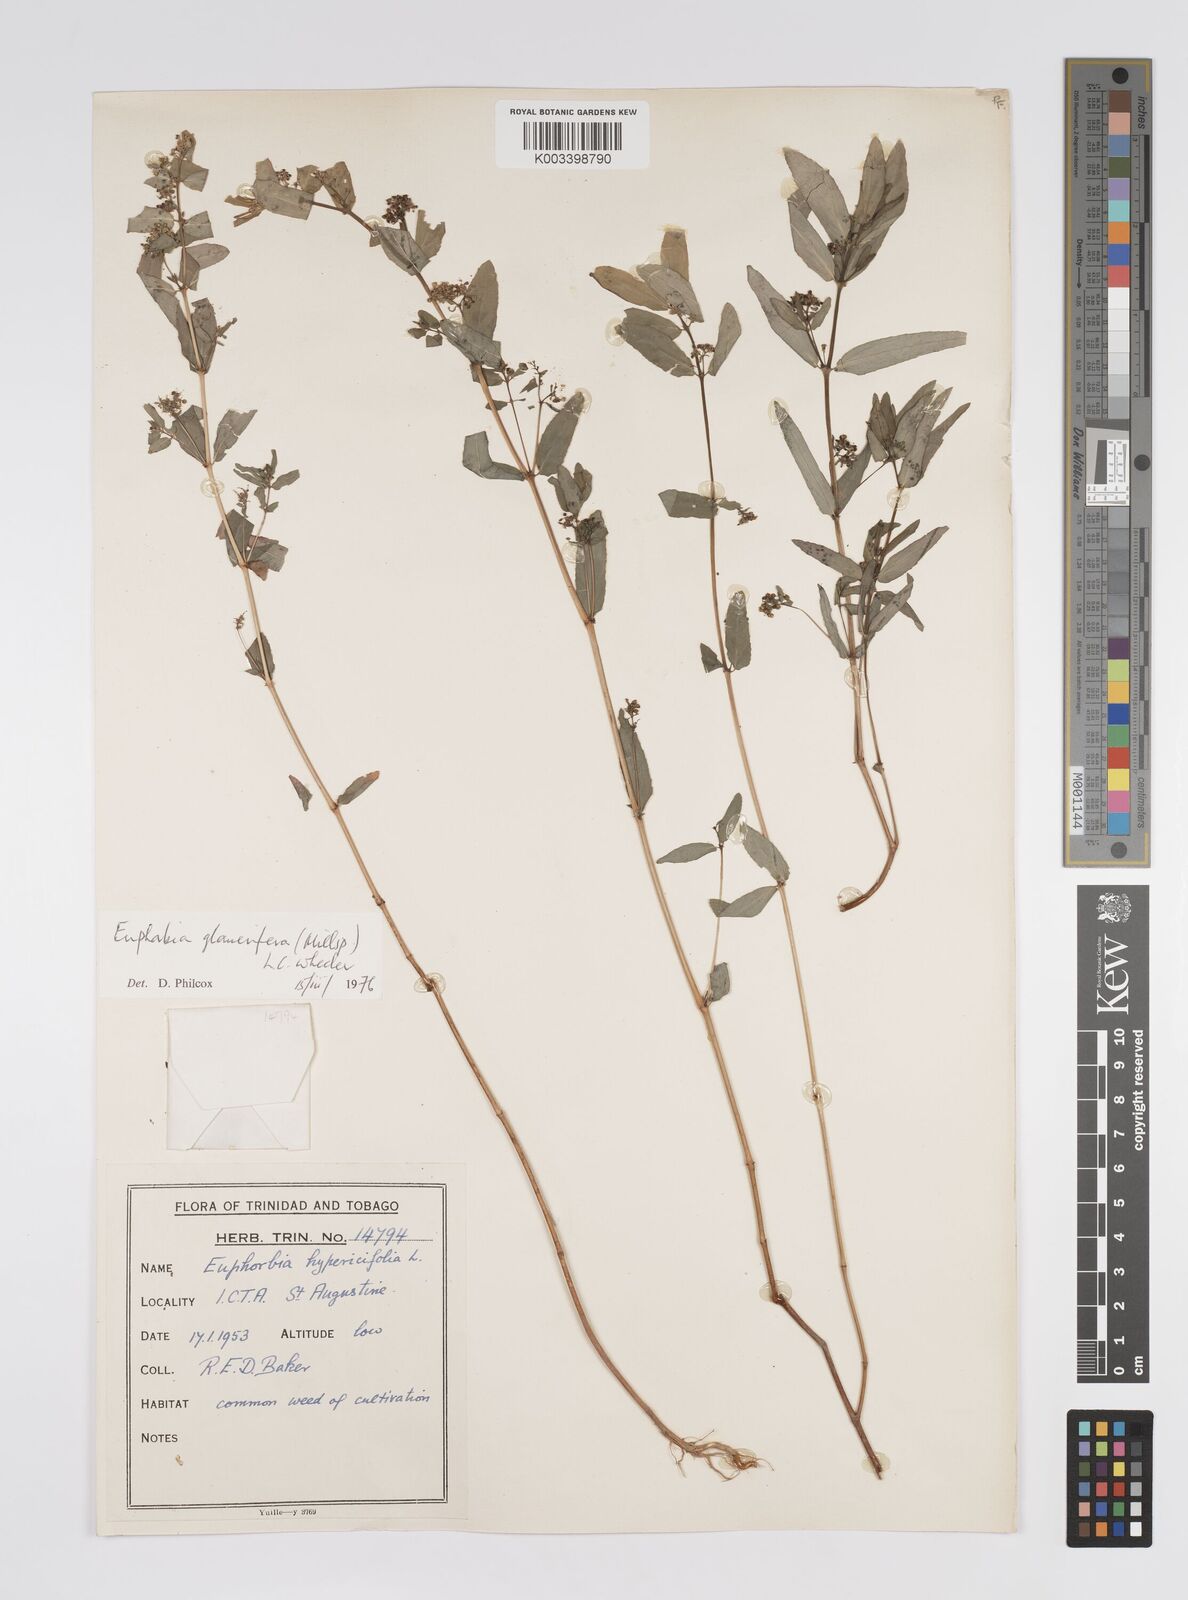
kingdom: Plantae
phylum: Tracheophyta
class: Magnoliopsida
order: Malpighiales
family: Euphorbiaceae
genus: Euphorbia
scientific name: Euphorbia hypericifolia
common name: Graceful sandmat
